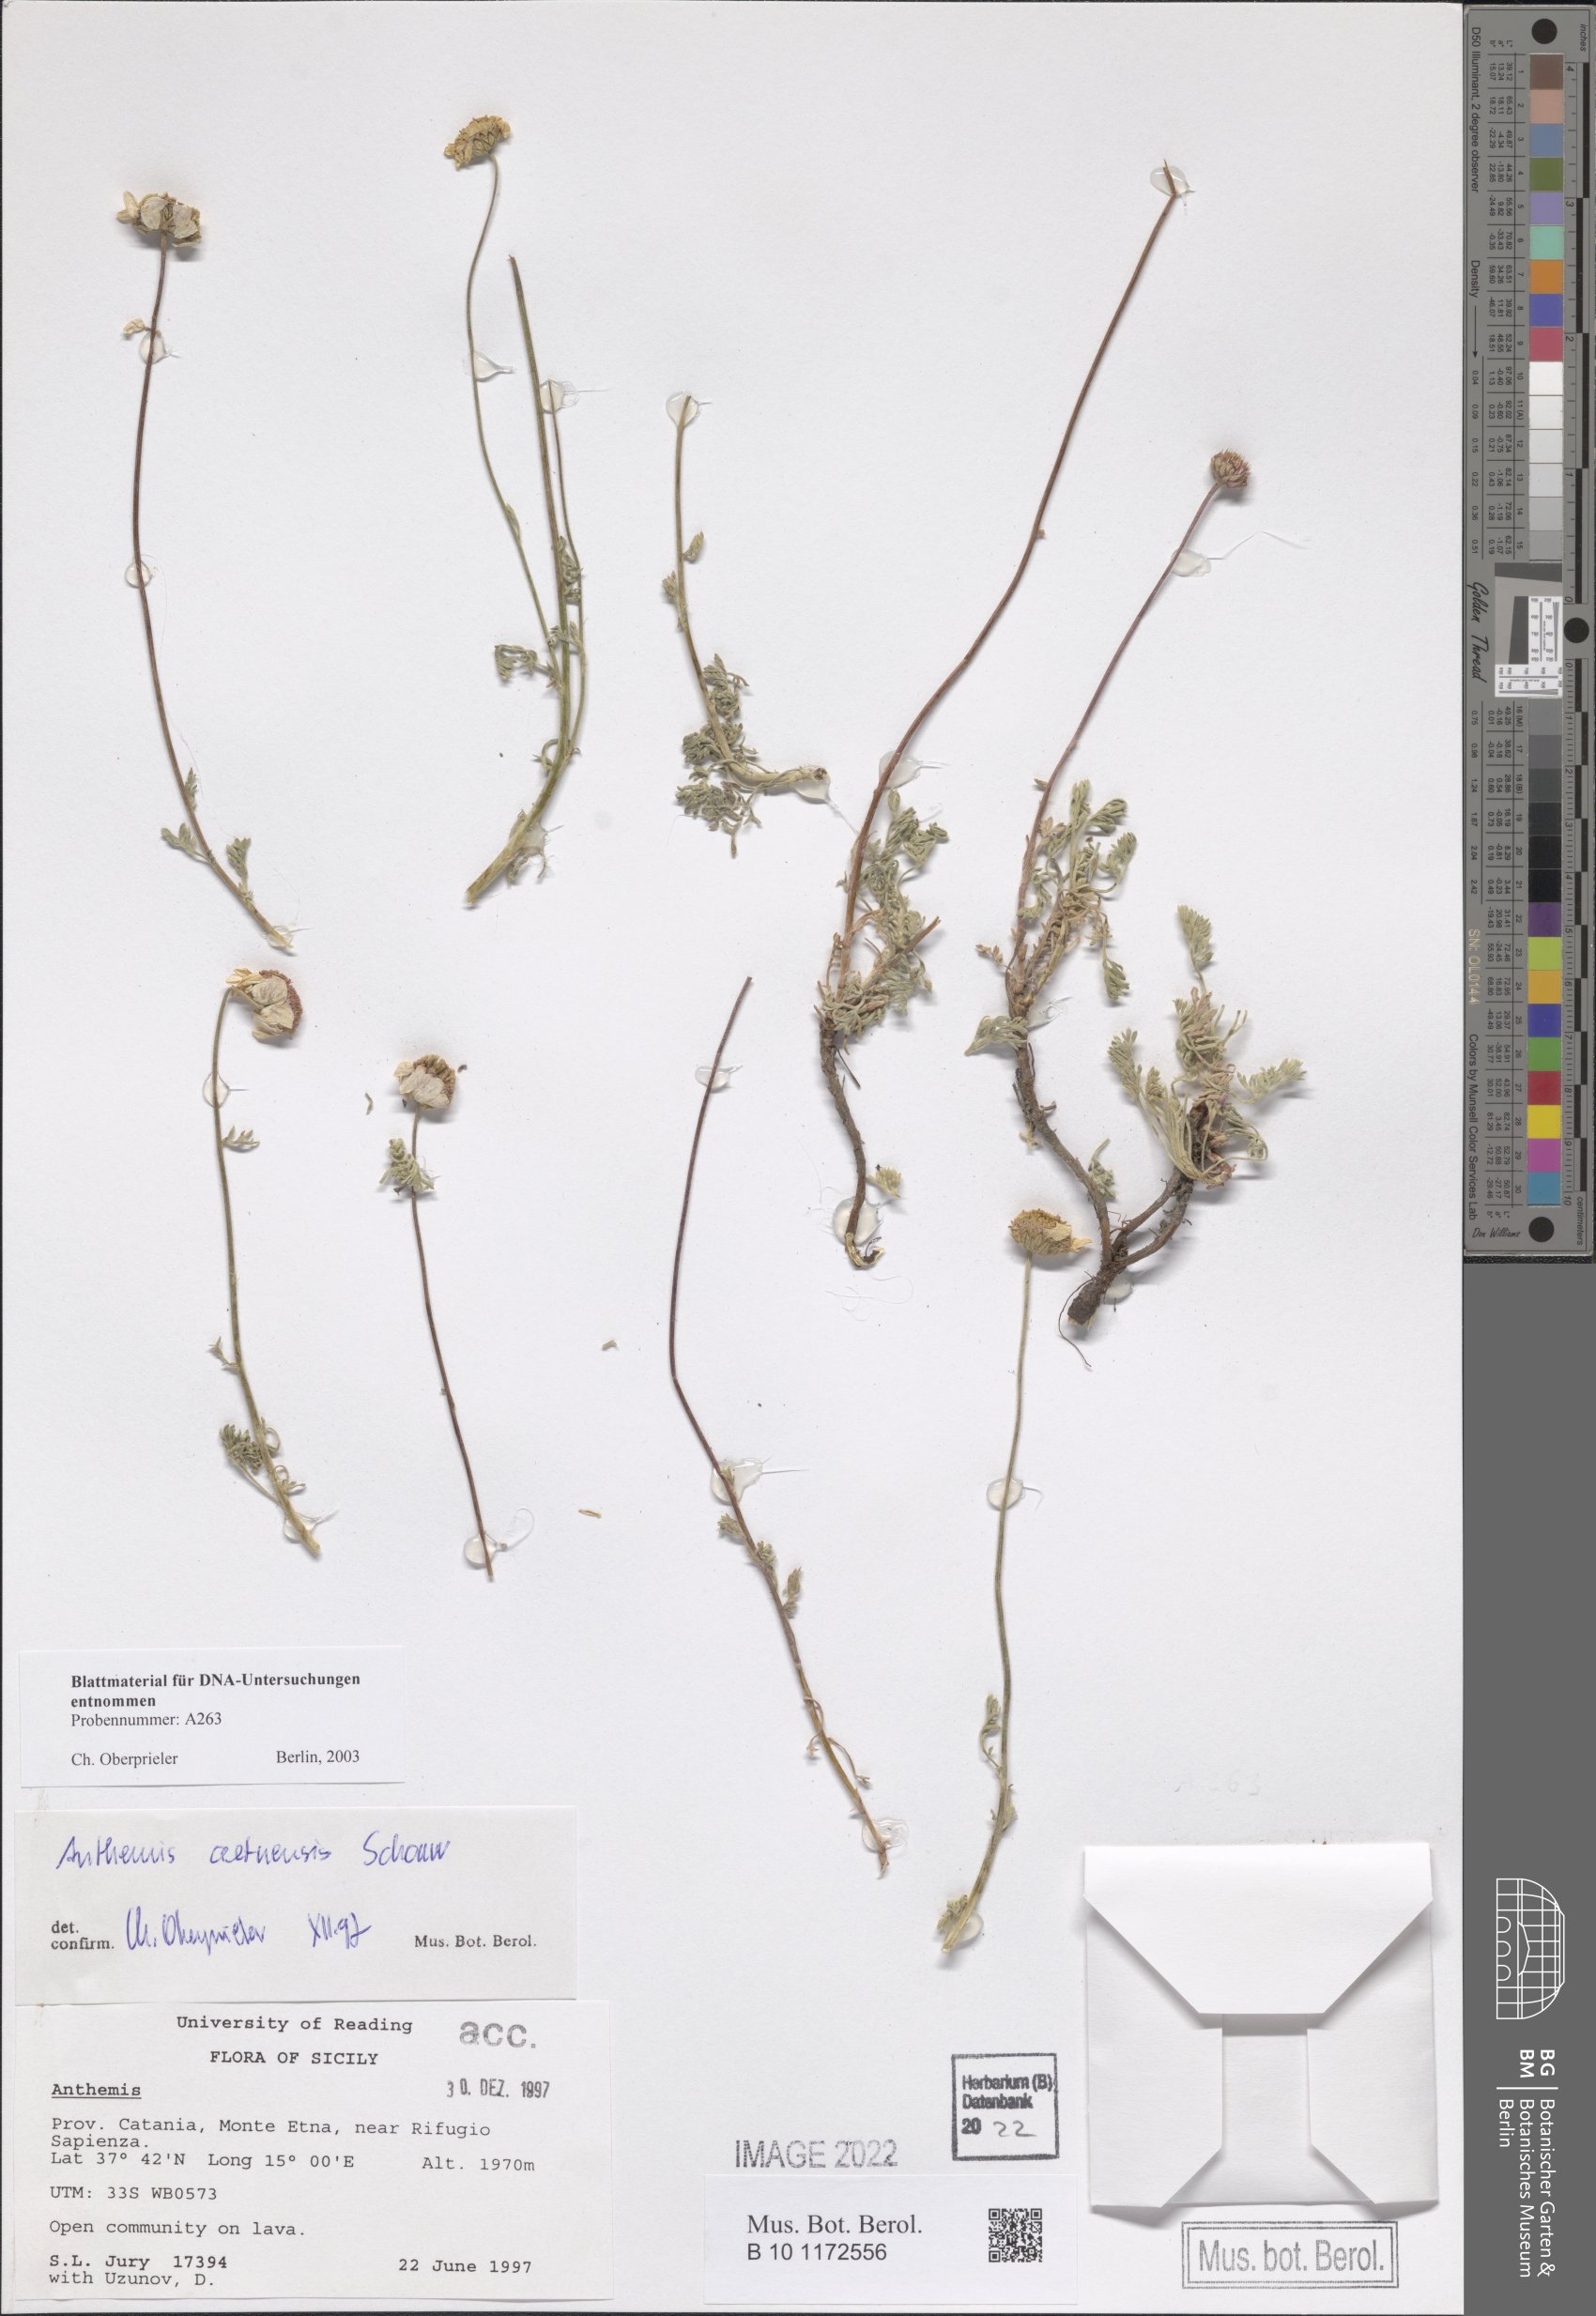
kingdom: Plantae
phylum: Tracheophyta
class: Magnoliopsida
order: Asterales
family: Asteraceae
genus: Anthemis
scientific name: Anthemis aetnensis
